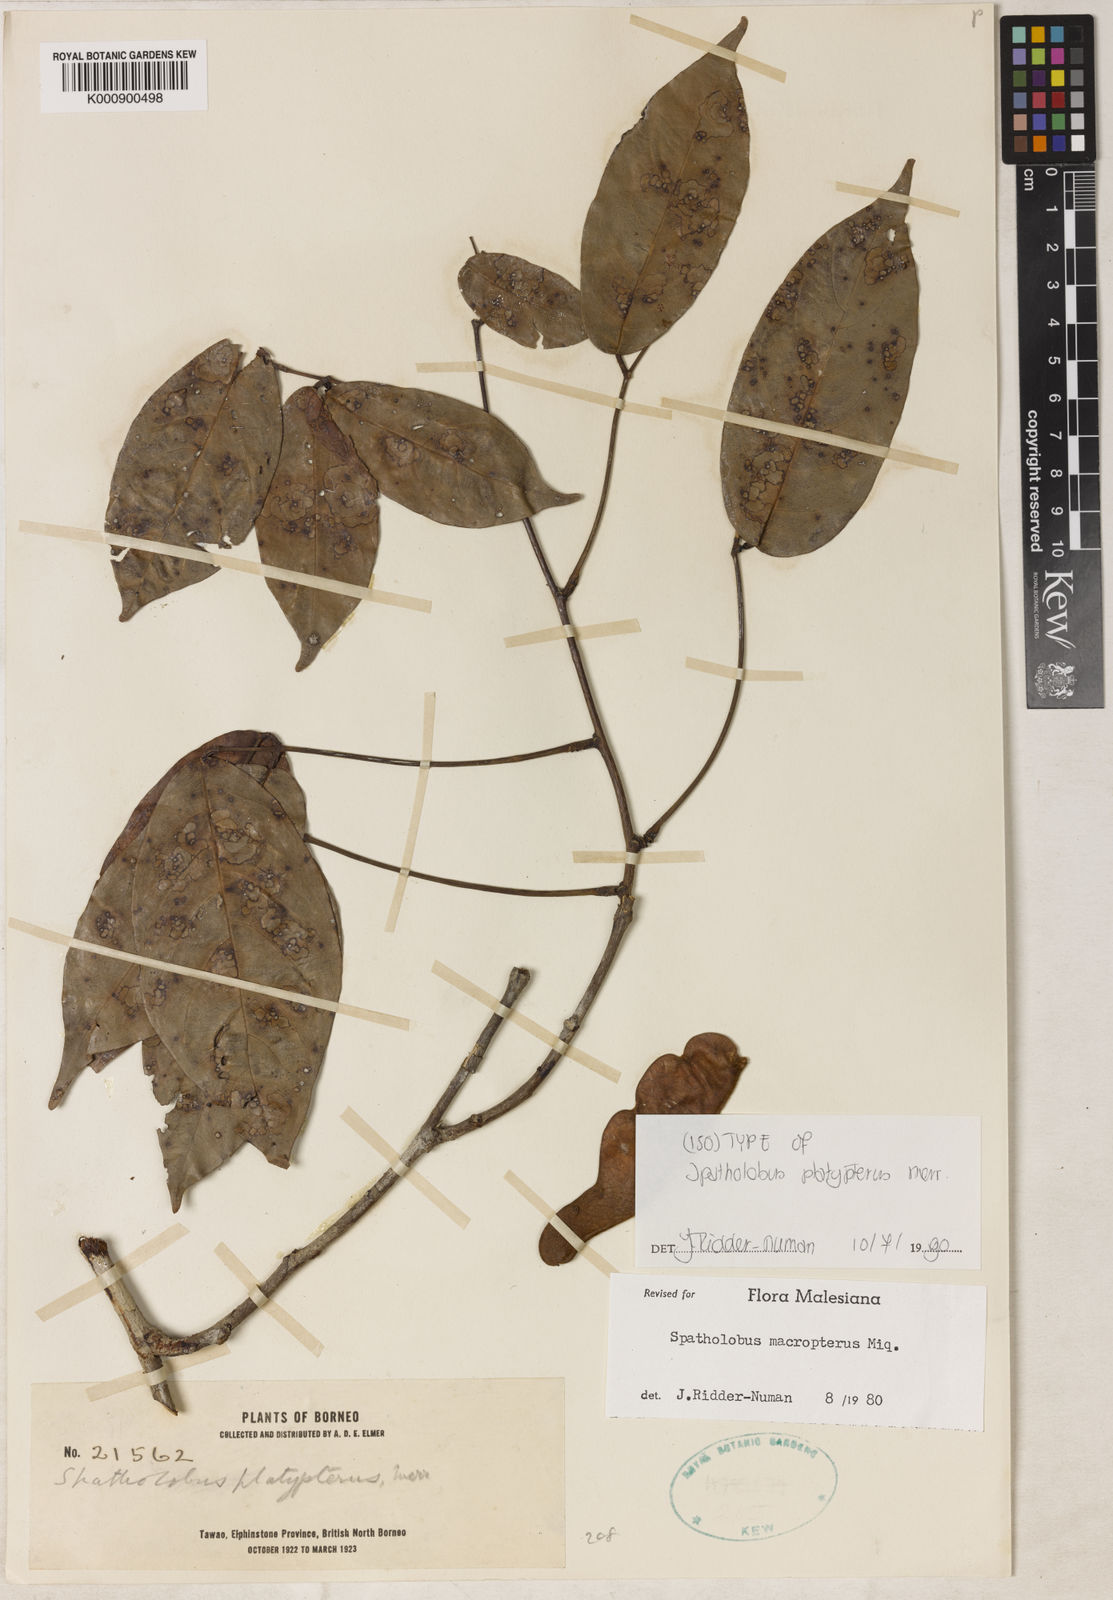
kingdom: Plantae
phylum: Tracheophyta
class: Magnoliopsida
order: Fabales
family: Fabaceae
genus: Spatholobus
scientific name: Spatholobus macropterus
